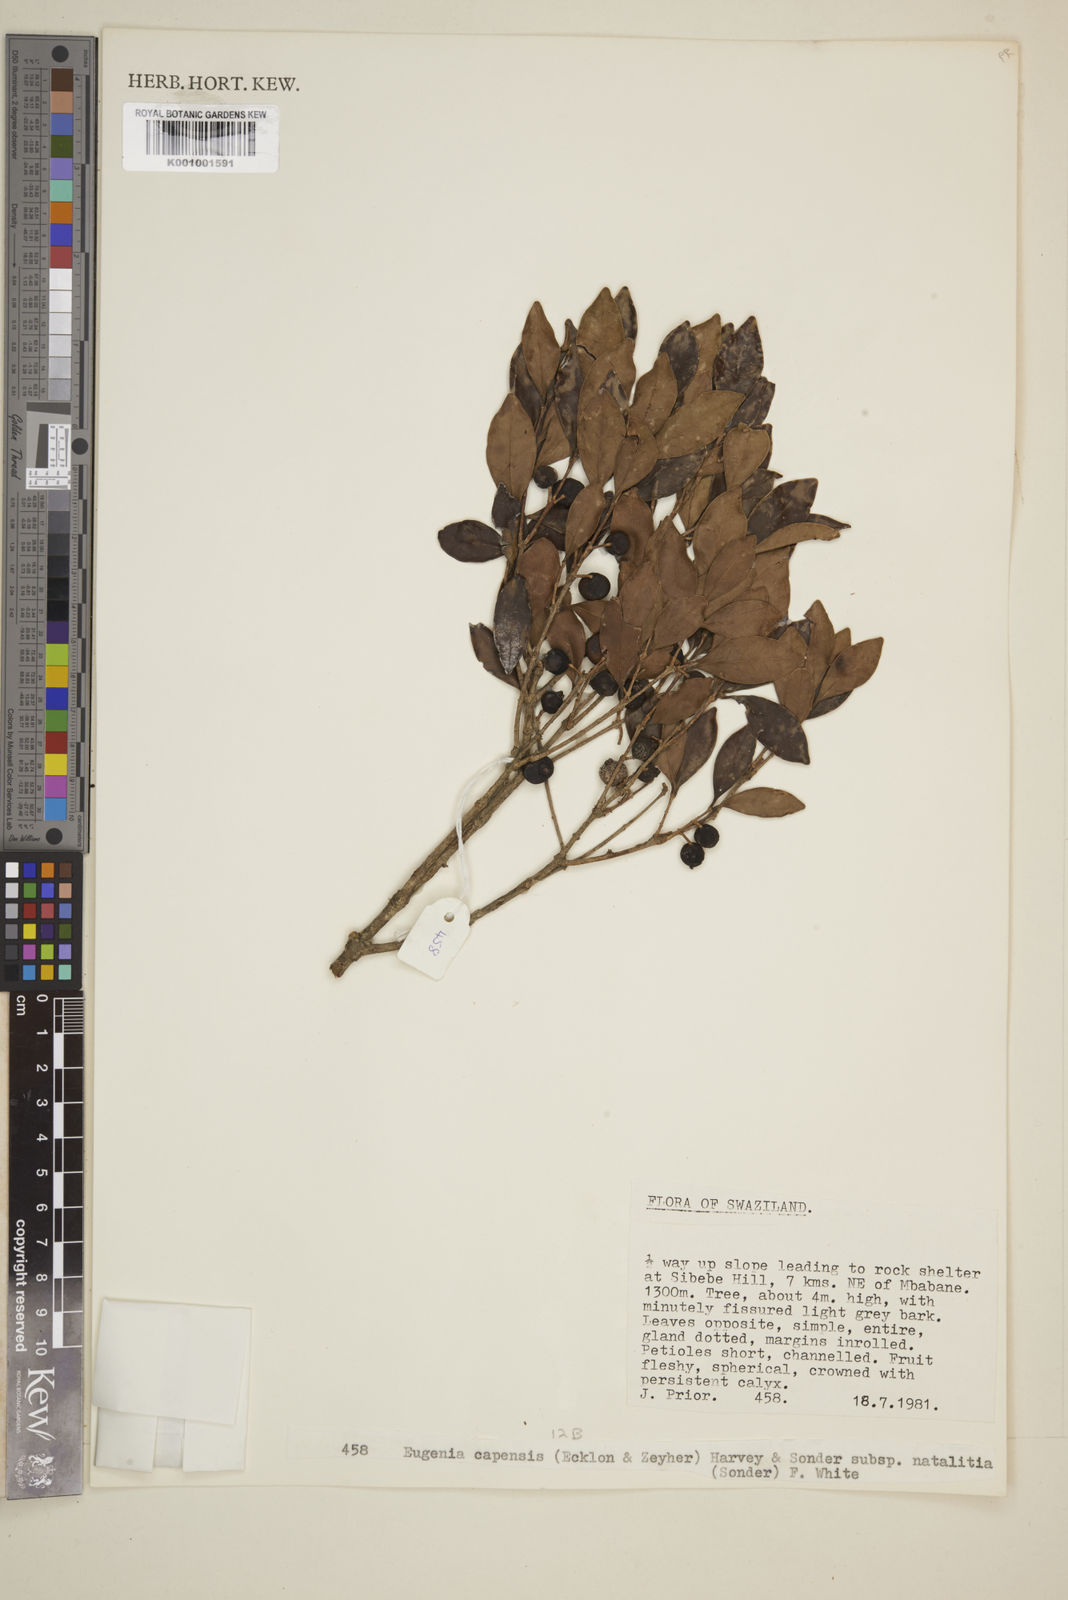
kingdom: Plantae
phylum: Tracheophyta
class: Magnoliopsida
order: Myrtales
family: Myrtaceae
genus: Eugenia
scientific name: Eugenia natalitia
